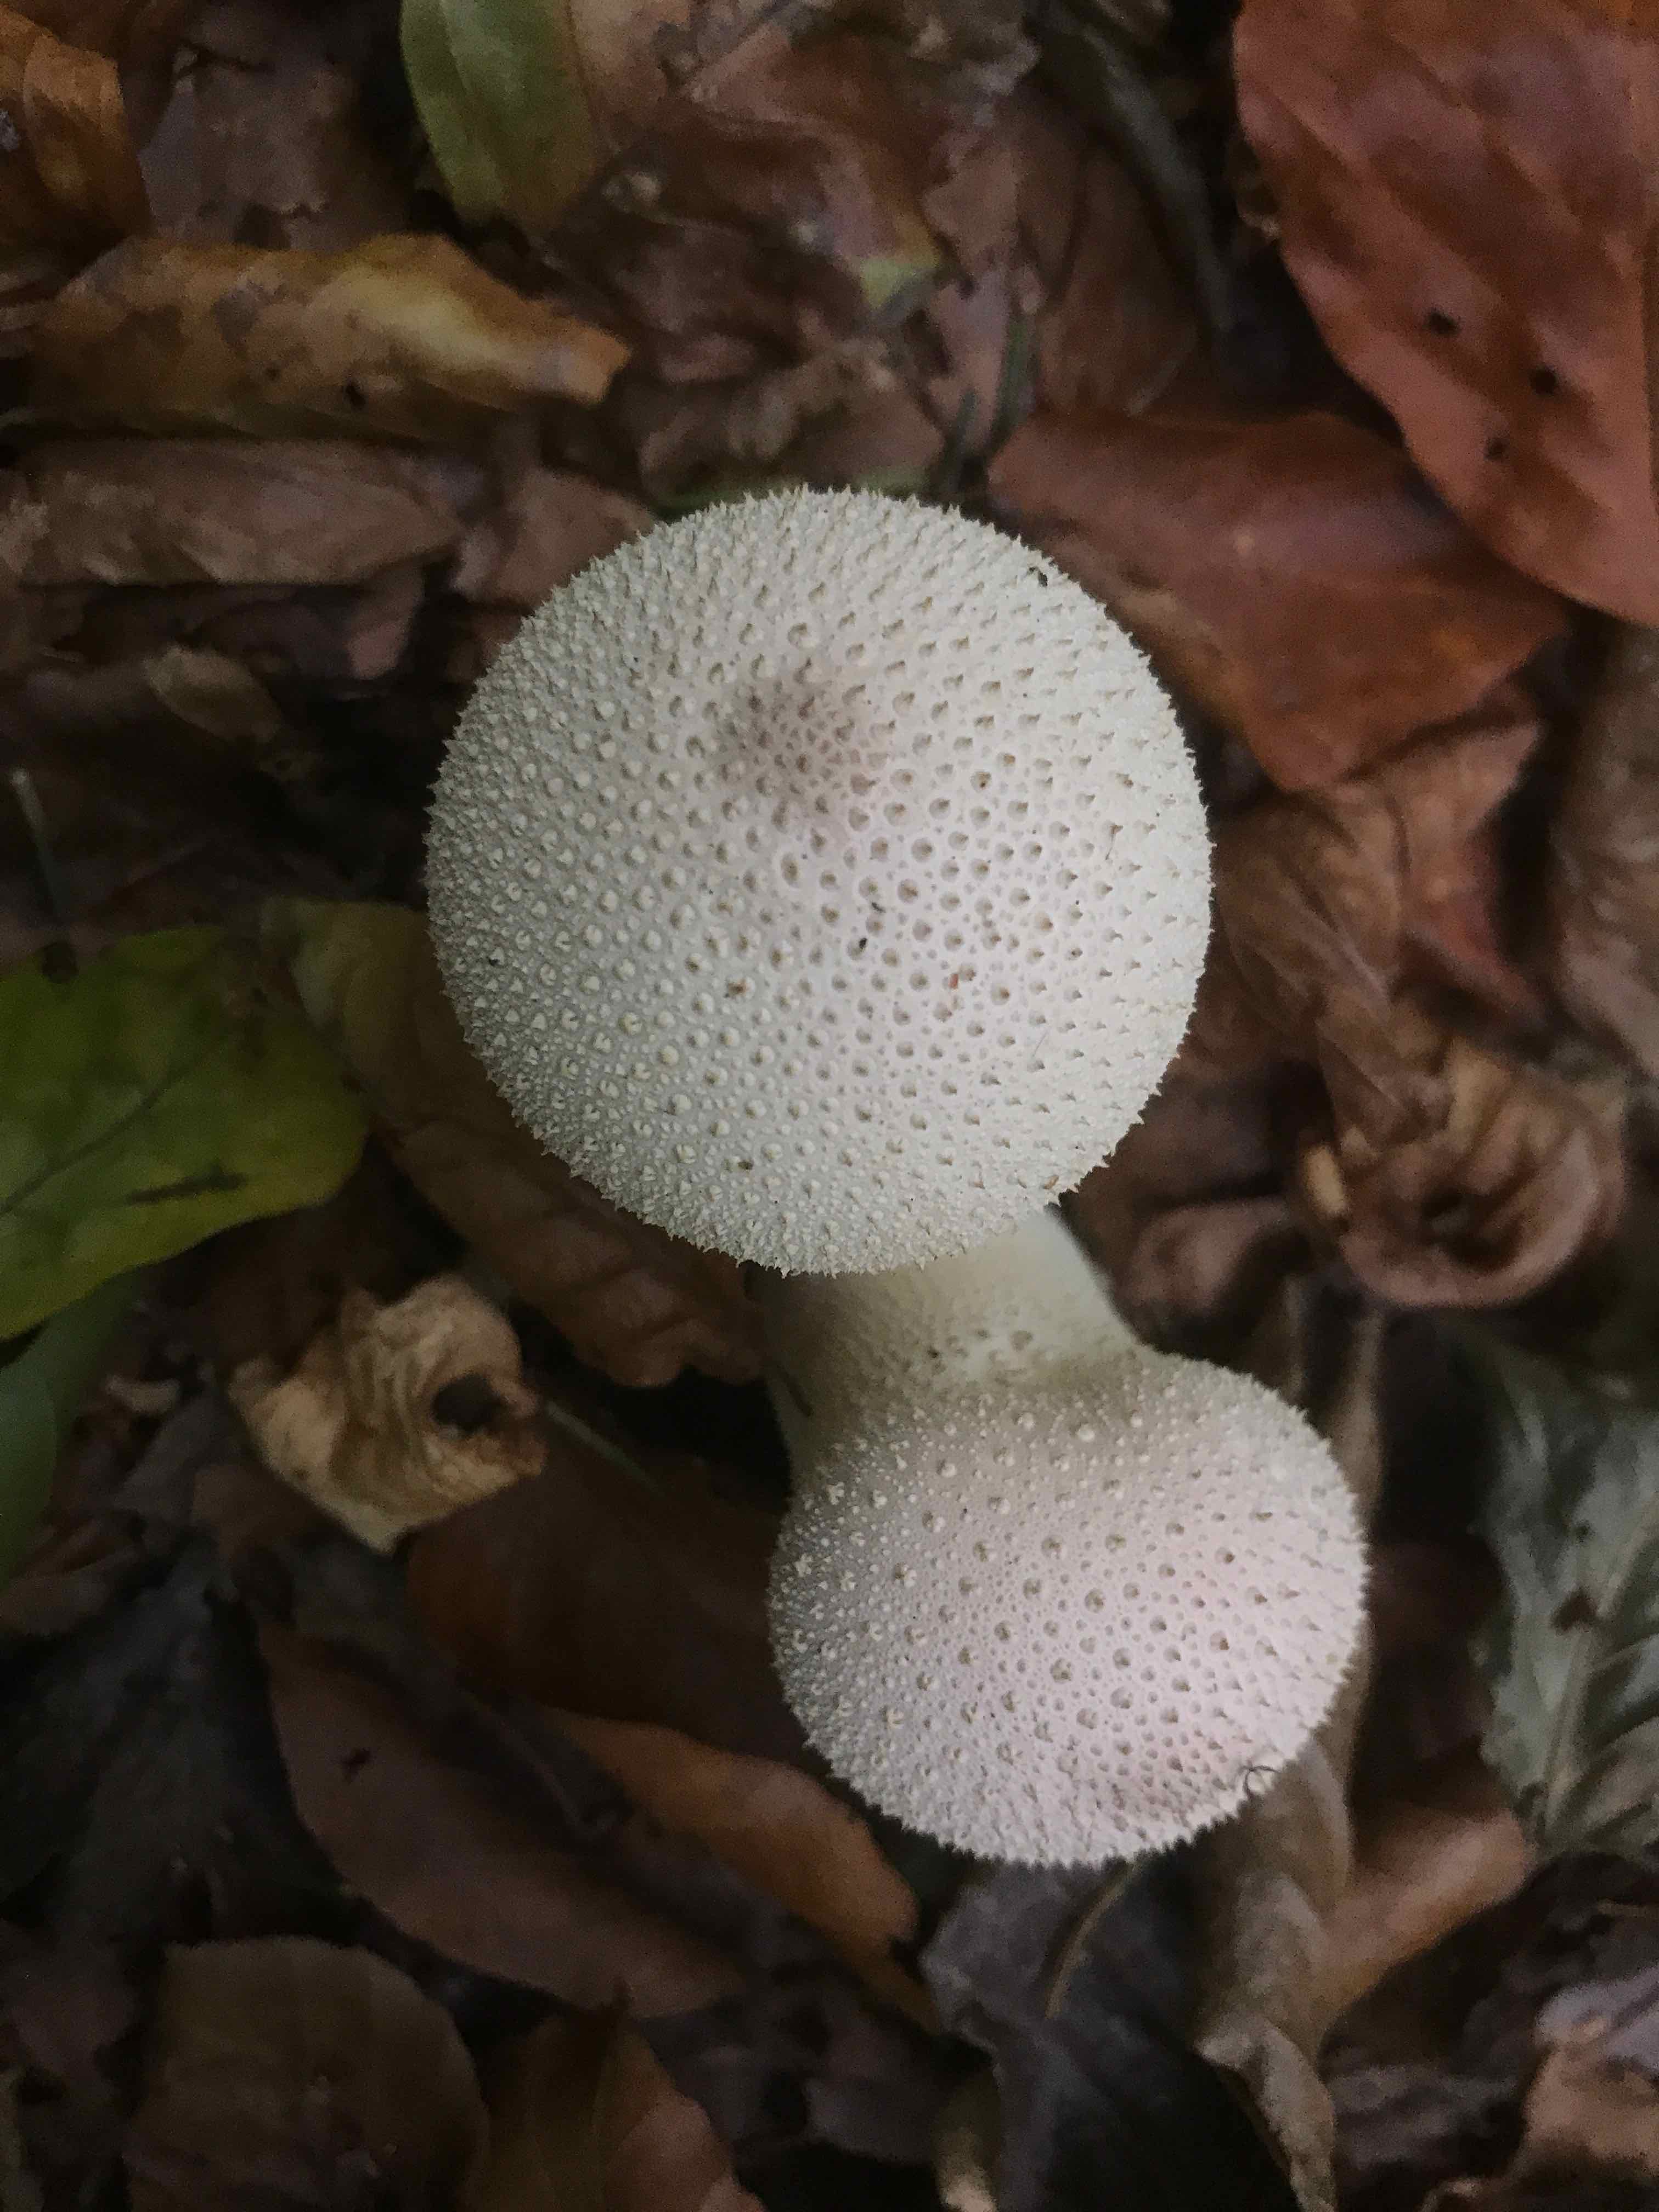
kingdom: Fungi
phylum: Basidiomycota
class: Agaricomycetes
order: Agaricales
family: Lycoperdaceae
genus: Lycoperdon
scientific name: Lycoperdon perlatum
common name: krystal-støvbold
